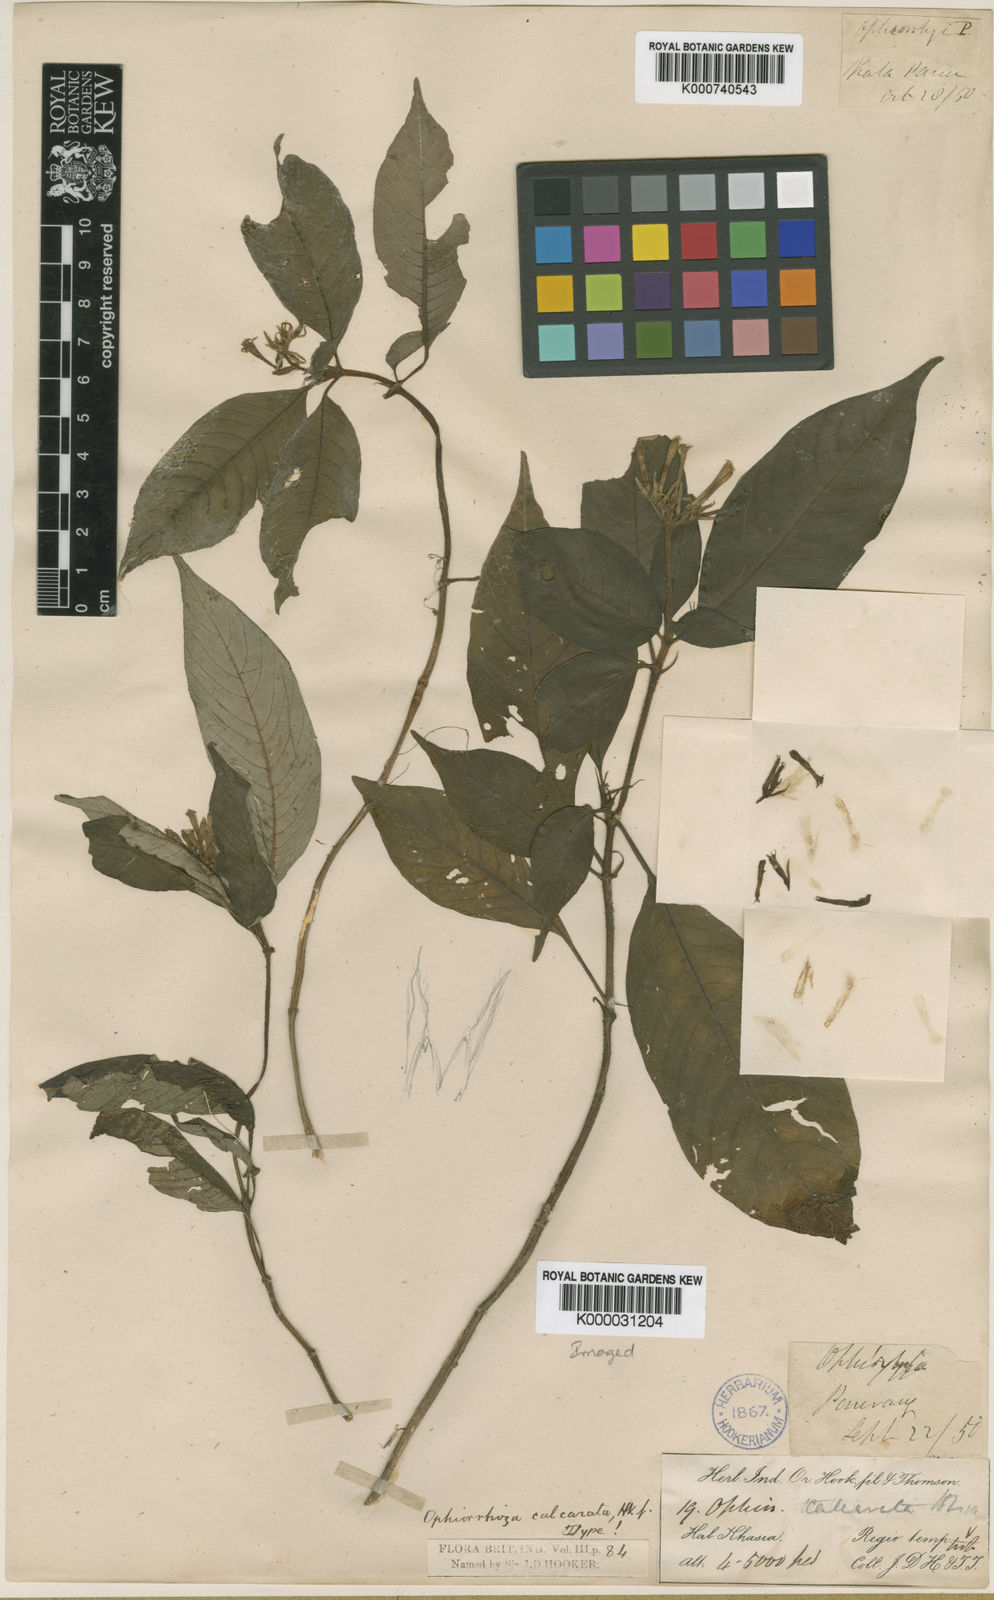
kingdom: Plantae
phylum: Tracheophyta
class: Magnoliopsida
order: Gentianales
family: Rubiaceae
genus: Ophiorrhiza
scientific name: Ophiorrhiza repens
